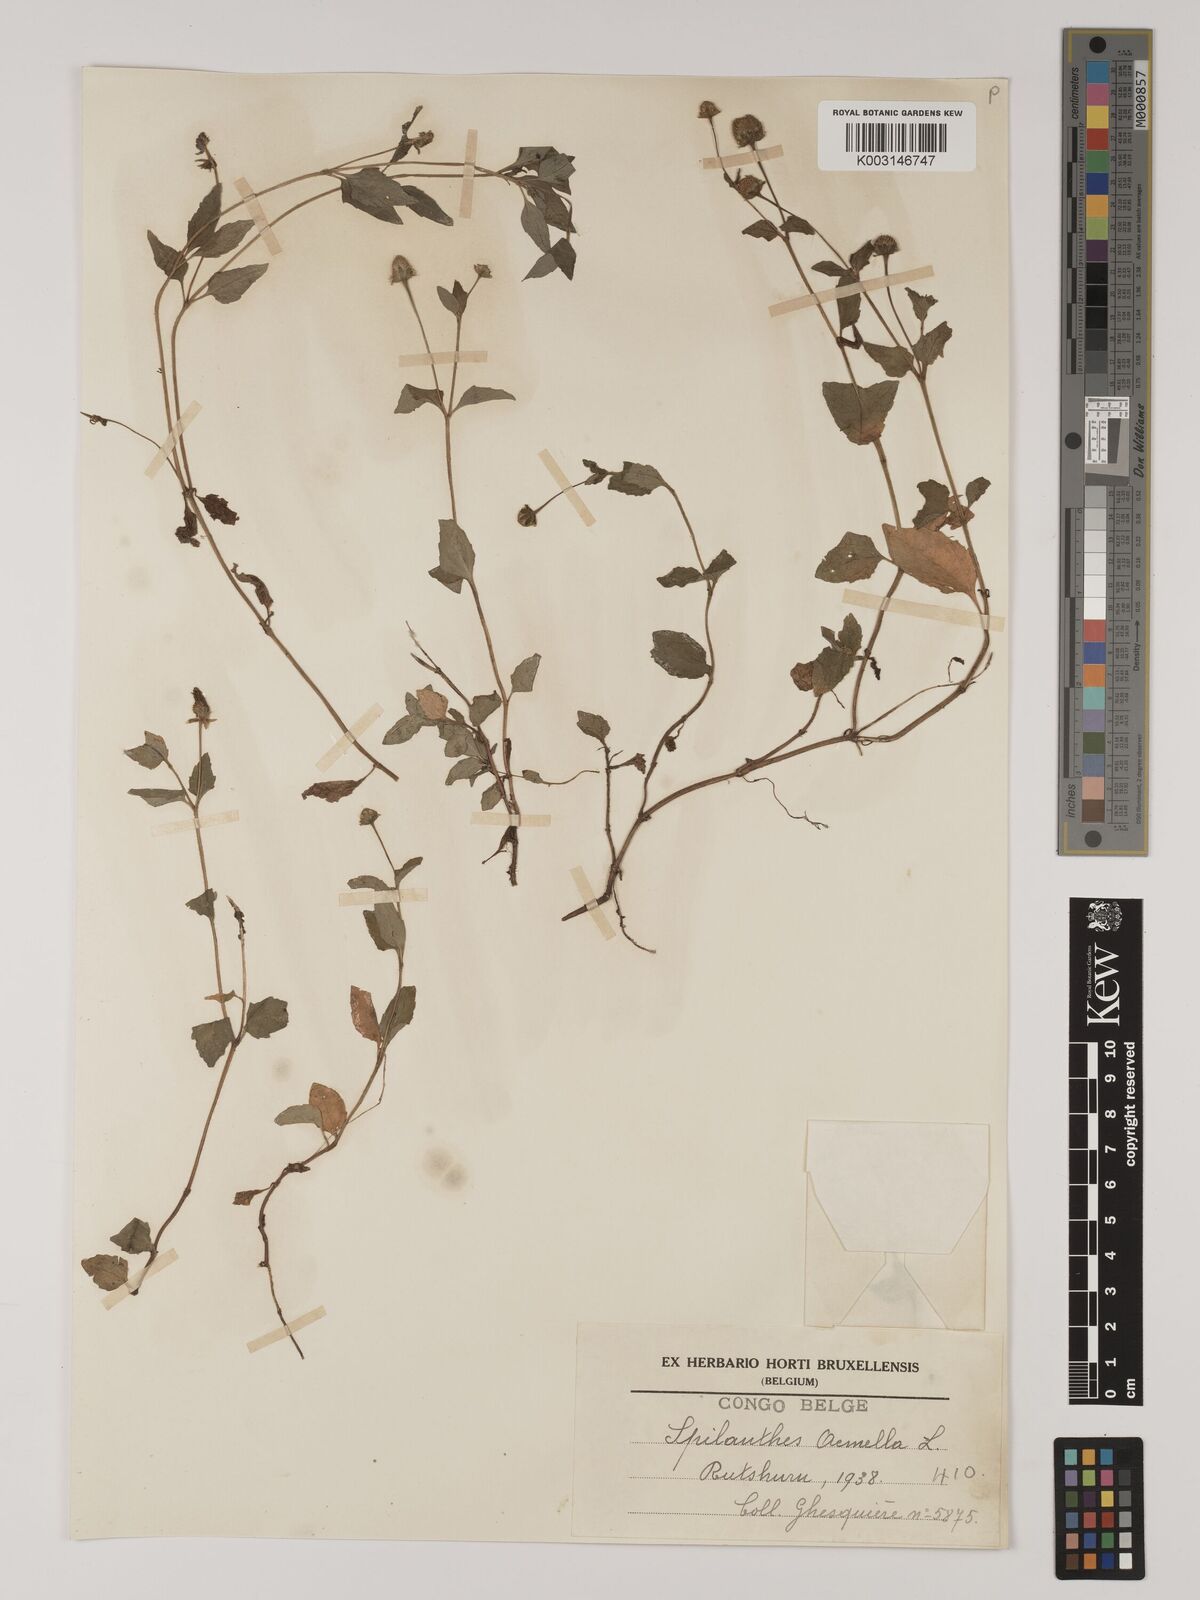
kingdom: Plantae
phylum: Tracheophyta
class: Magnoliopsida
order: Asterales
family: Asteraceae
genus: Blainvillea
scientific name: Blainvillea acmella
